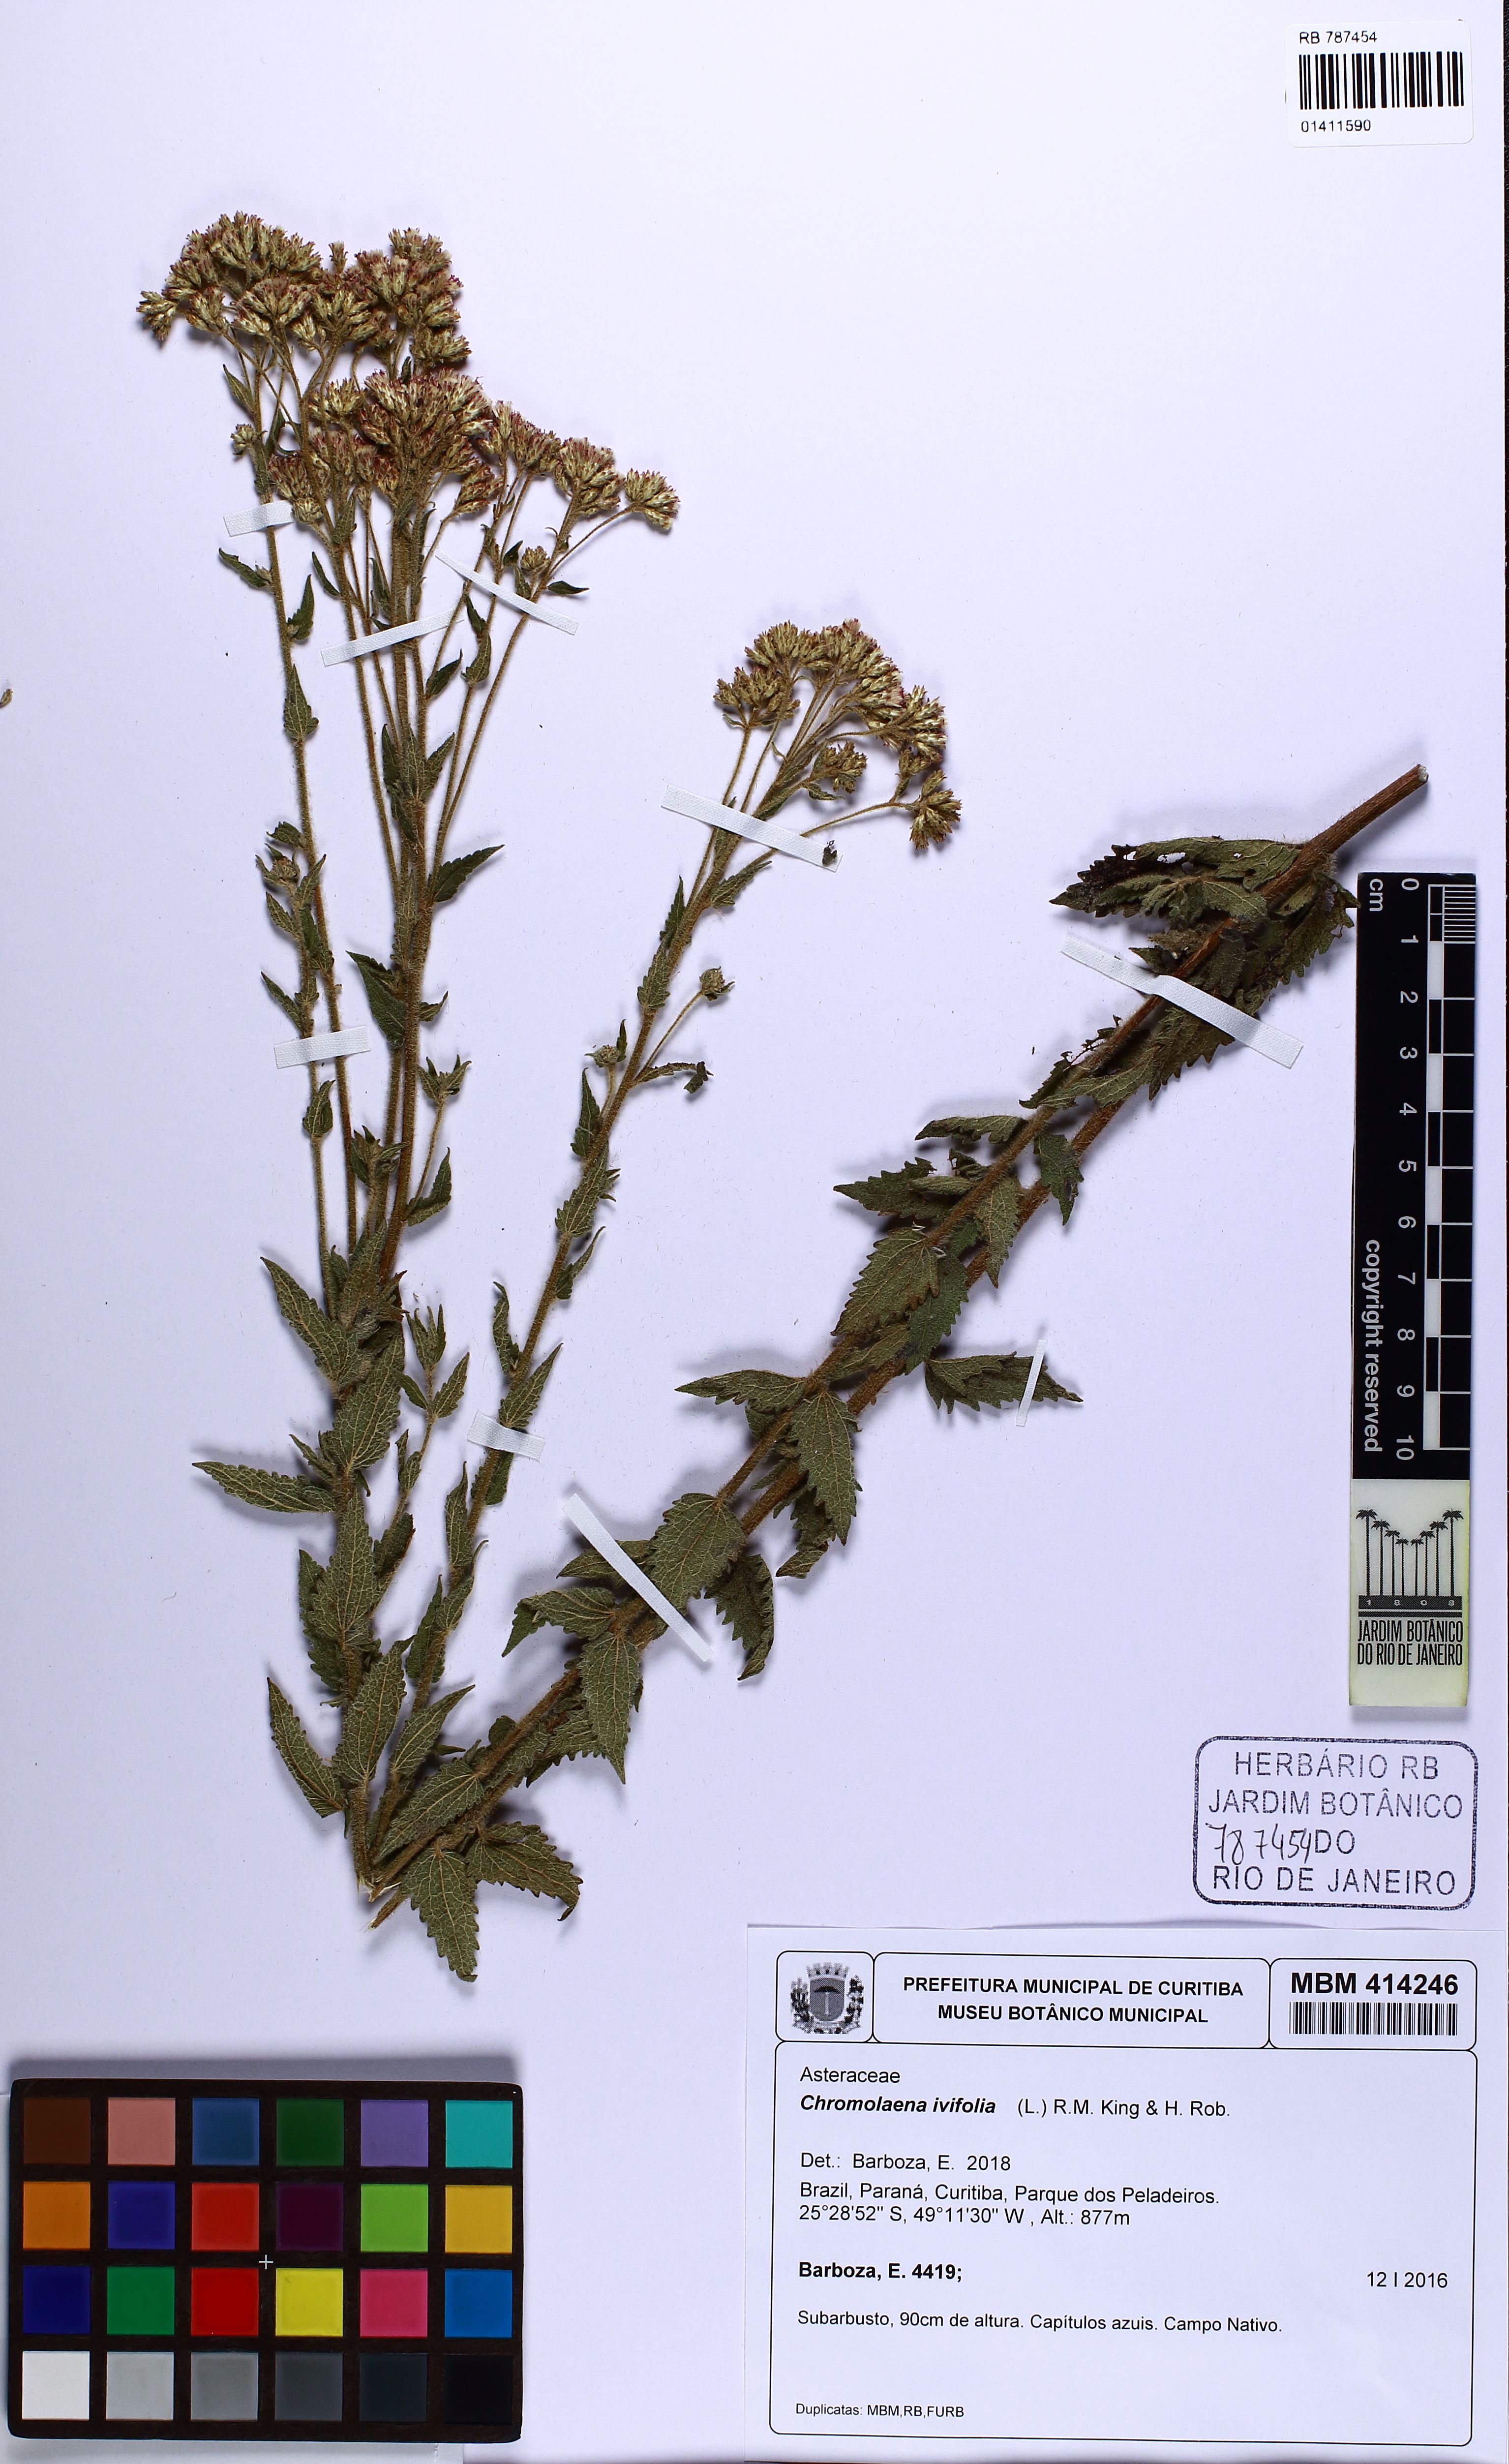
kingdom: Plantae
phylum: Tracheophyta
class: Magnoliopsida
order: Asterales
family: Asteraceae
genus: Chromolaena
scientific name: Chromolaena ivifolia
